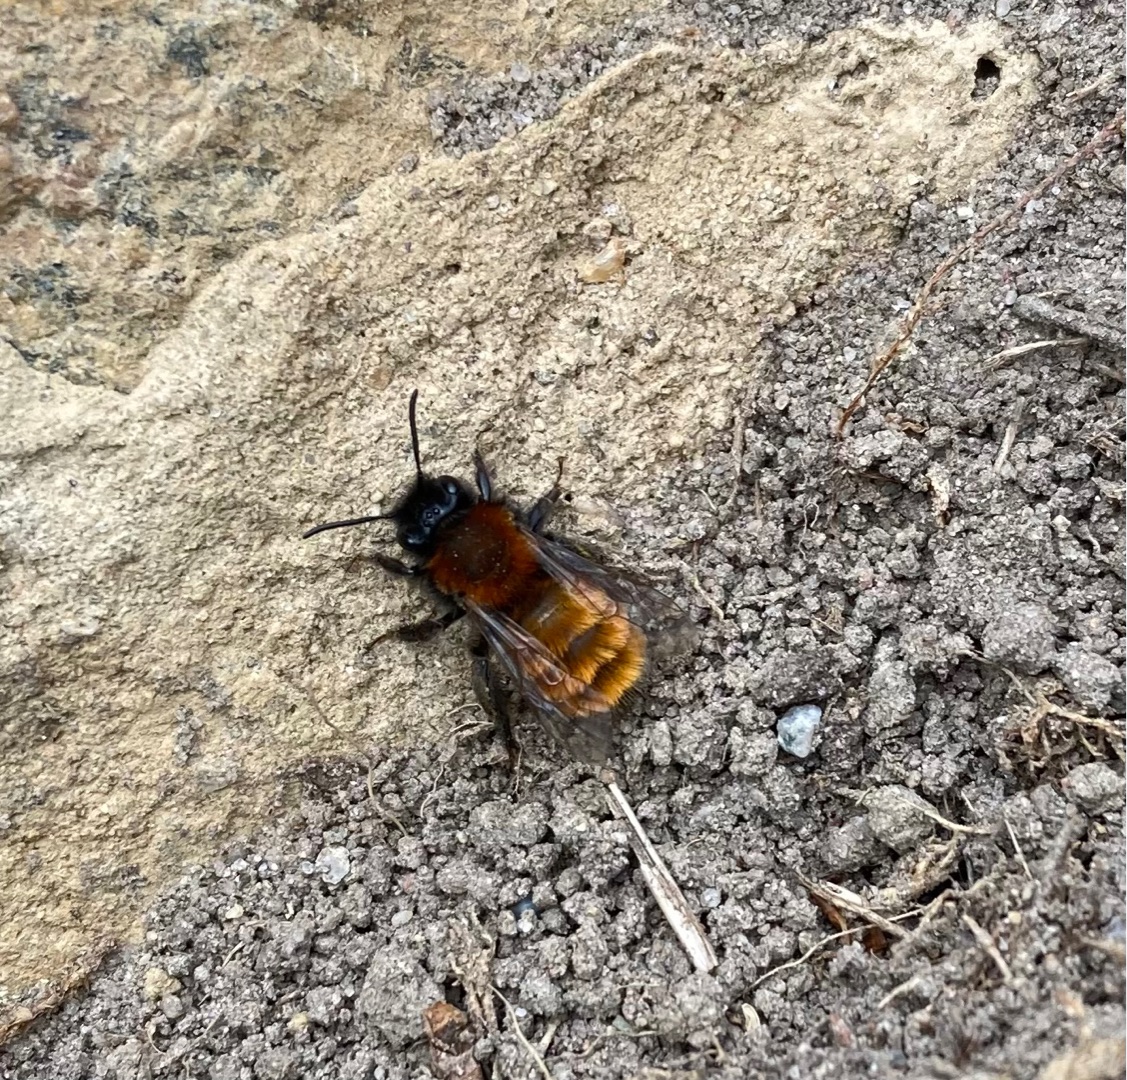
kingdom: Animalia
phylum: Arthropoda
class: Insecta
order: Hymenoptera
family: Andrenidae
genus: Andrena
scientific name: Andrena fulva
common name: Rødpelset jordbi
